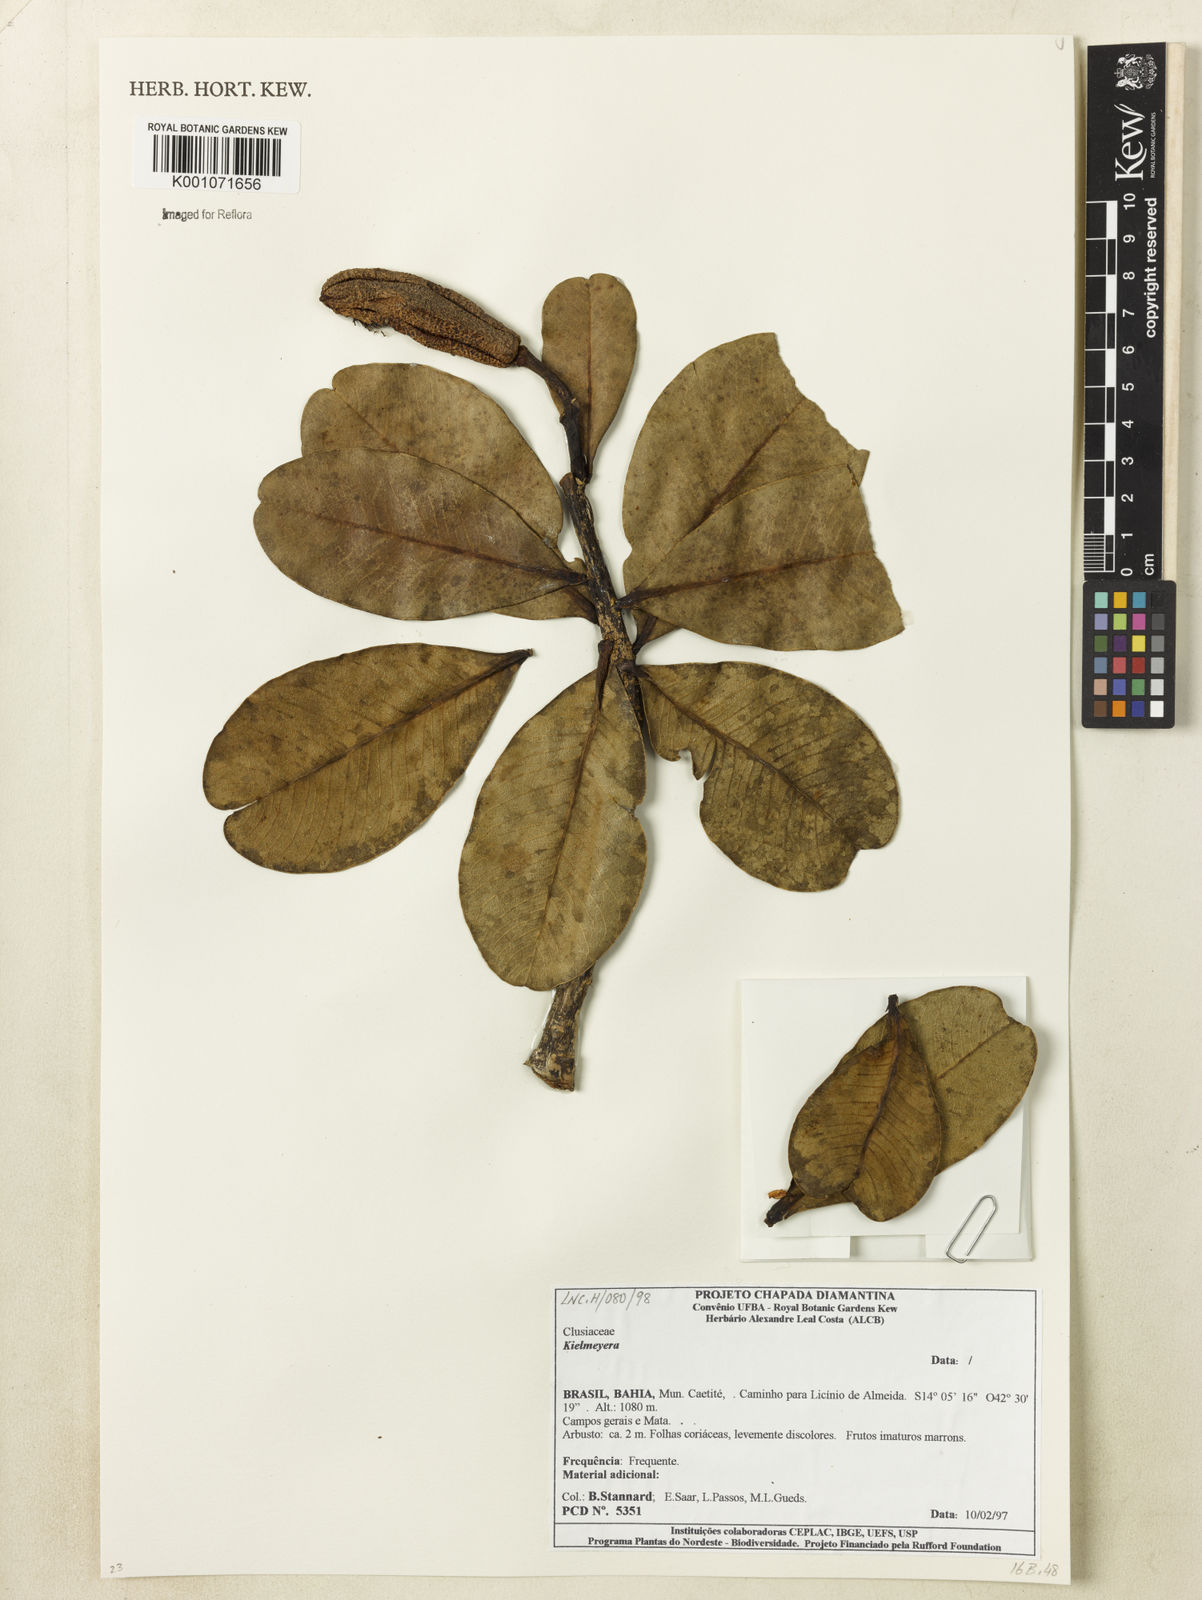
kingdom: Plantae
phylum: Tracheophyta
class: Magnoliopsida
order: Malpighiales
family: Calophyllaceae
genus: Kielmeyera
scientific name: Kielmeyera
